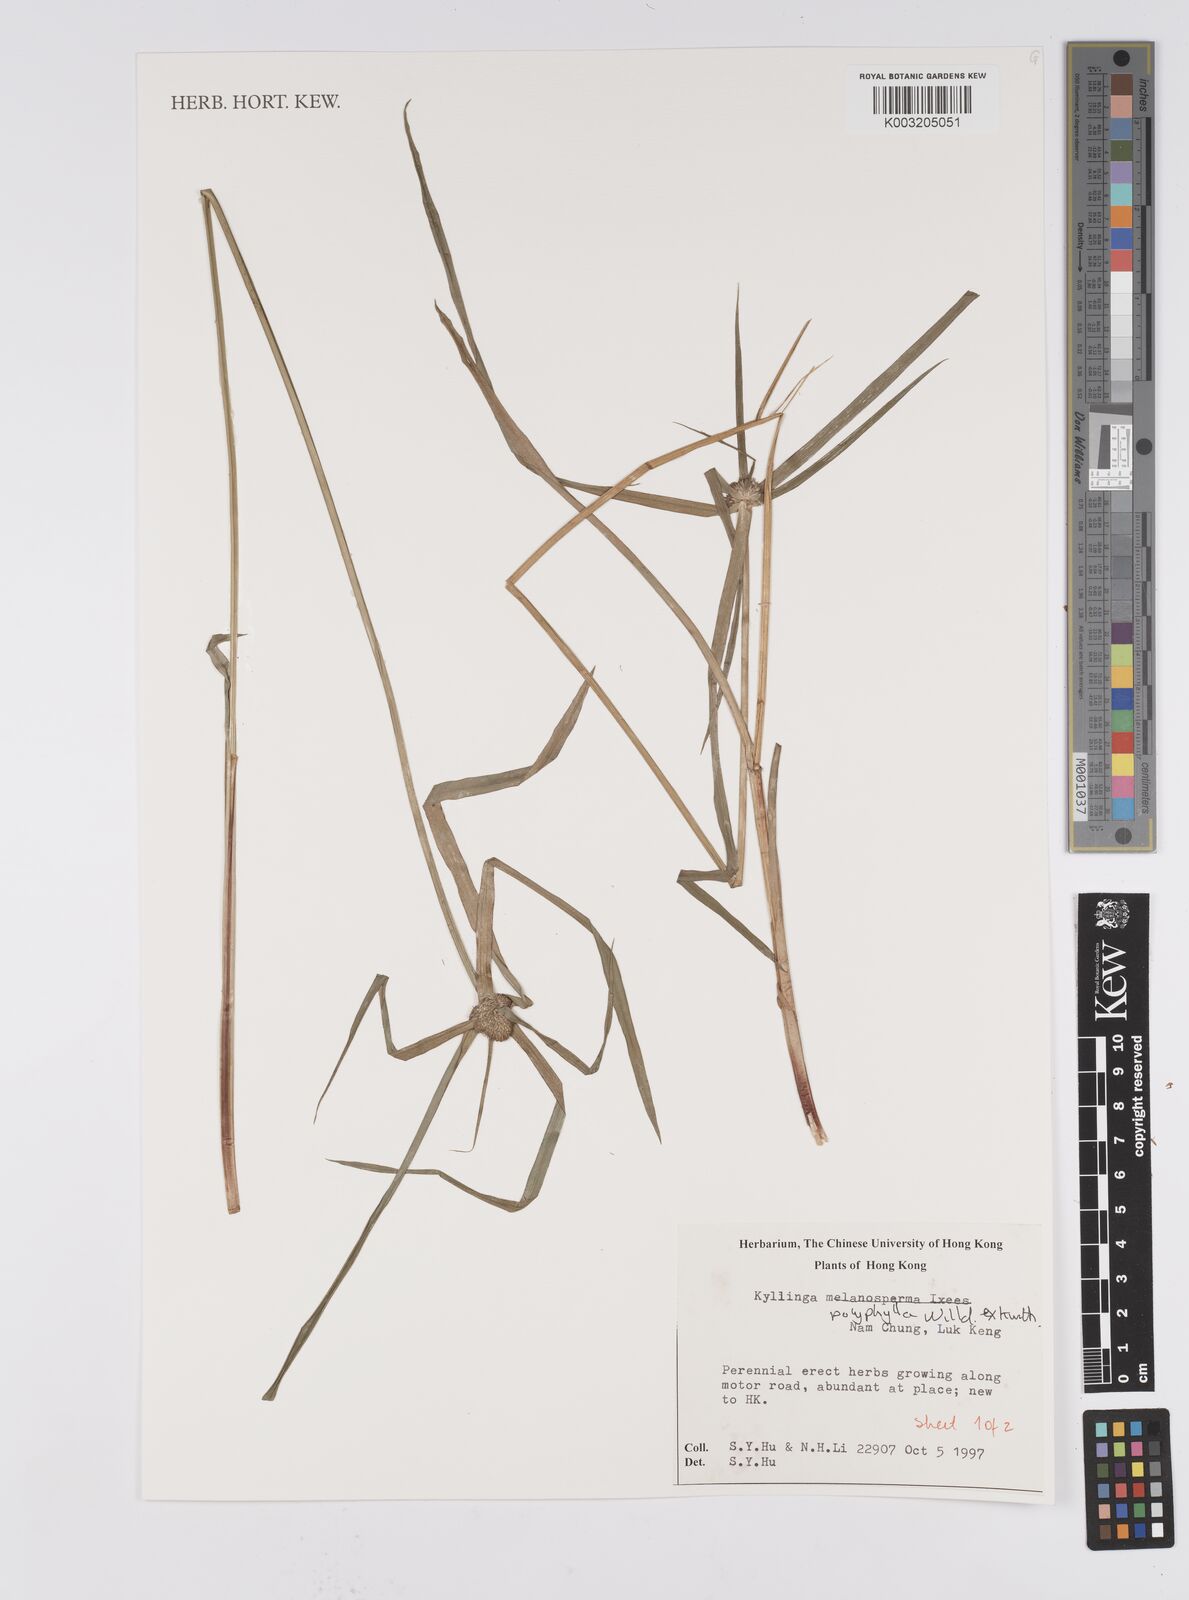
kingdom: Plantae
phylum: Tracheophyta
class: Liliopsida
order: Poales
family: Cyperaceae
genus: Cyperus
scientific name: Cyperus
